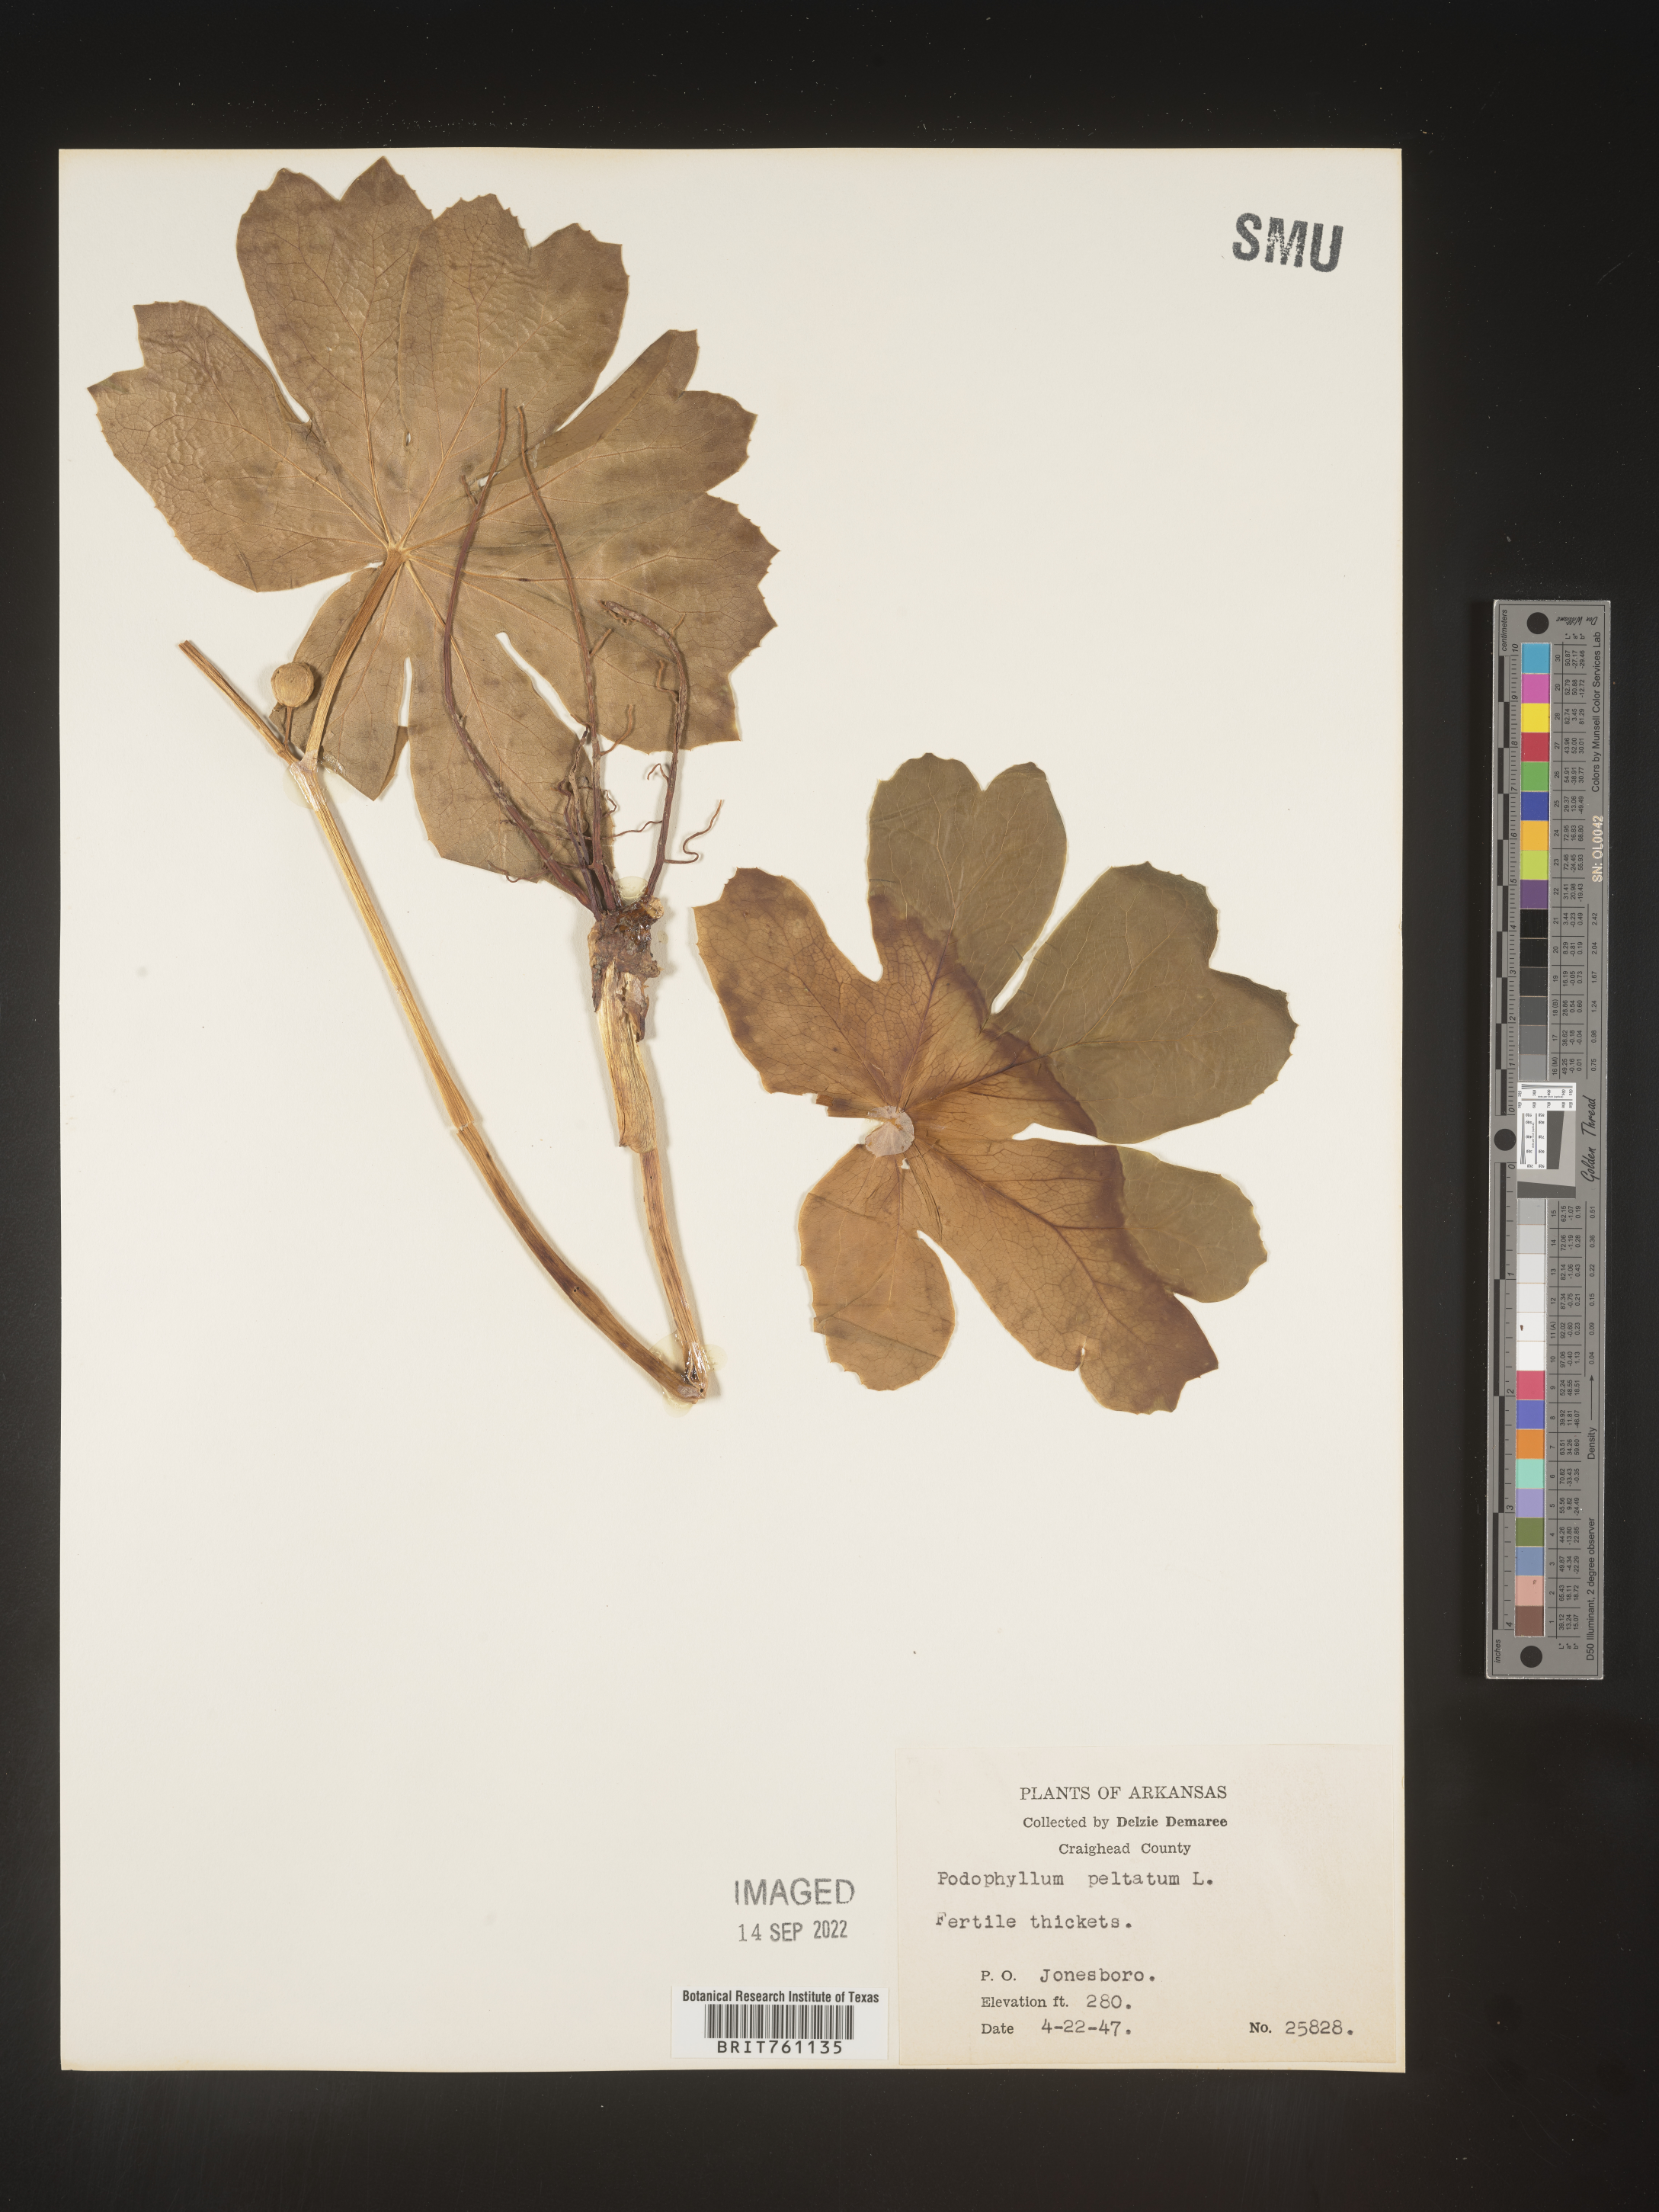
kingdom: Plantae
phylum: Tracheophyta
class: Magnoliopsida
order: Ranunculales
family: Berberidaceae
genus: Podophyllum
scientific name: Podophyllum peltatum
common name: Wild mandrake
